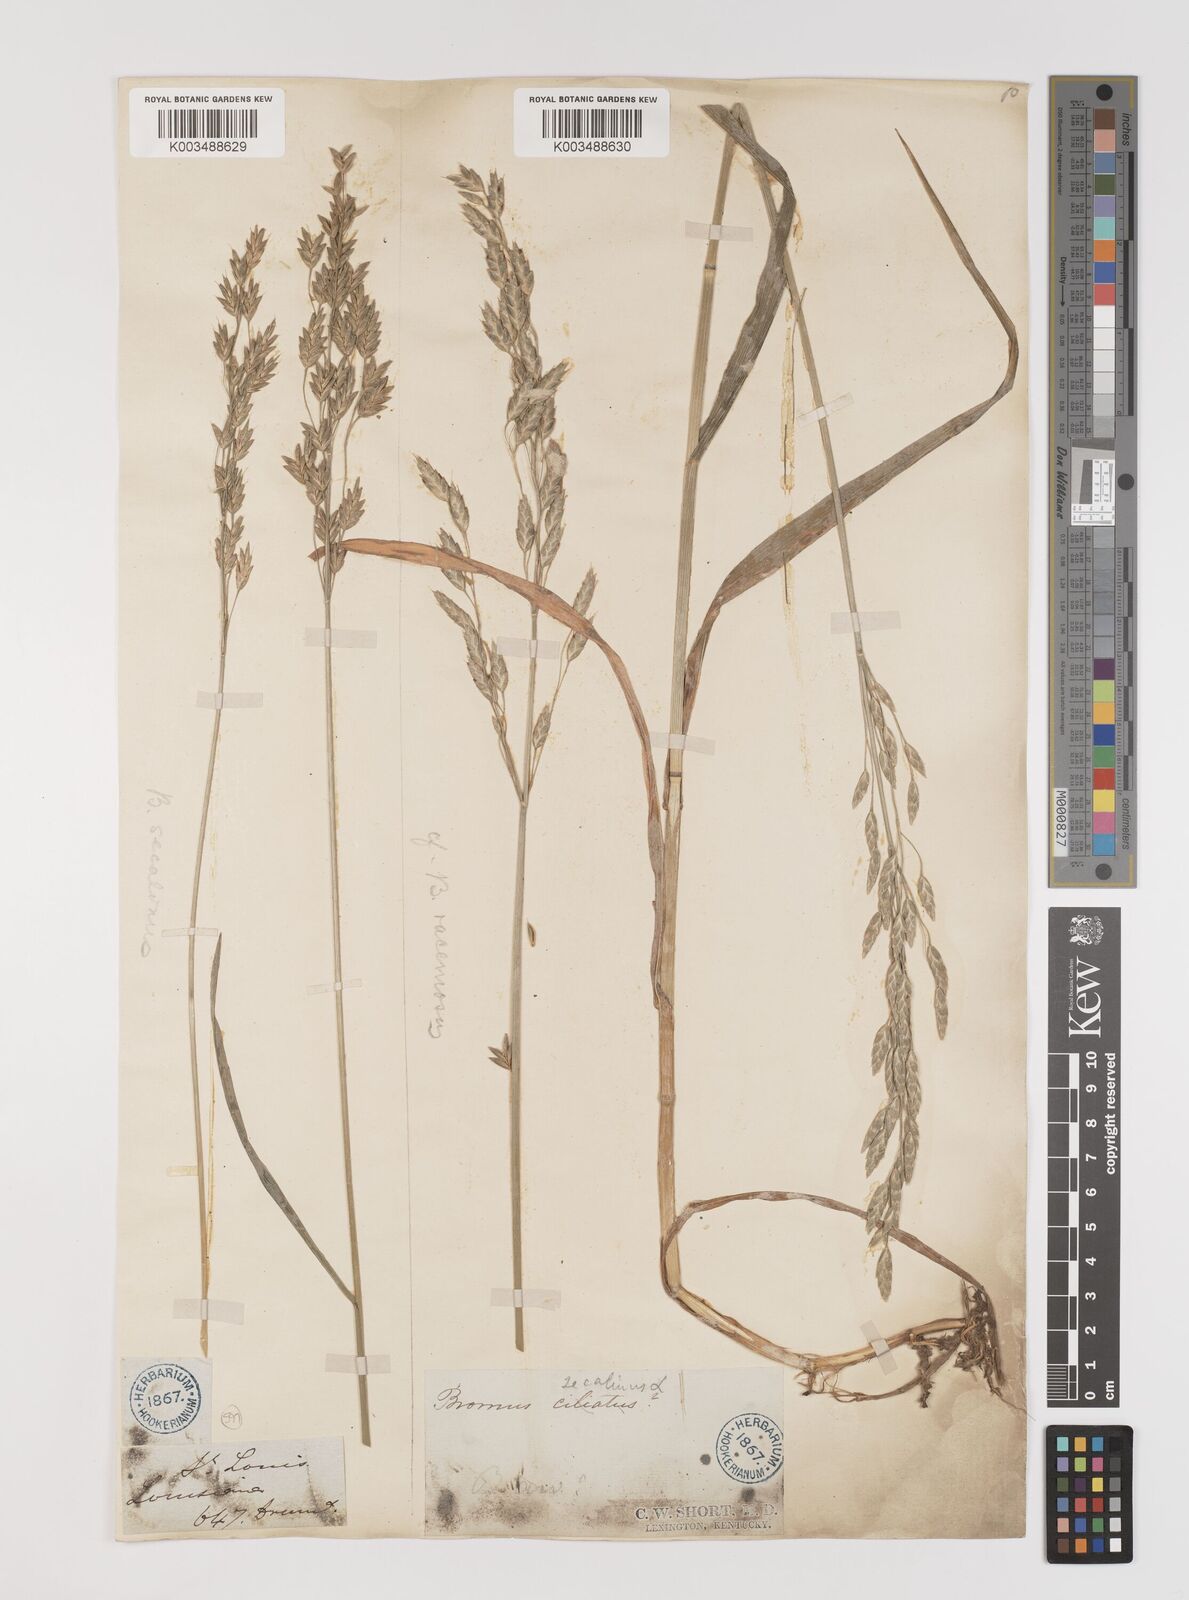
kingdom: Plantae
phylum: Tracheophyta
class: Liliopsida
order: Poales
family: Poaceae
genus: Bromus
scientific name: Bromus secalinus
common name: Rye brome
